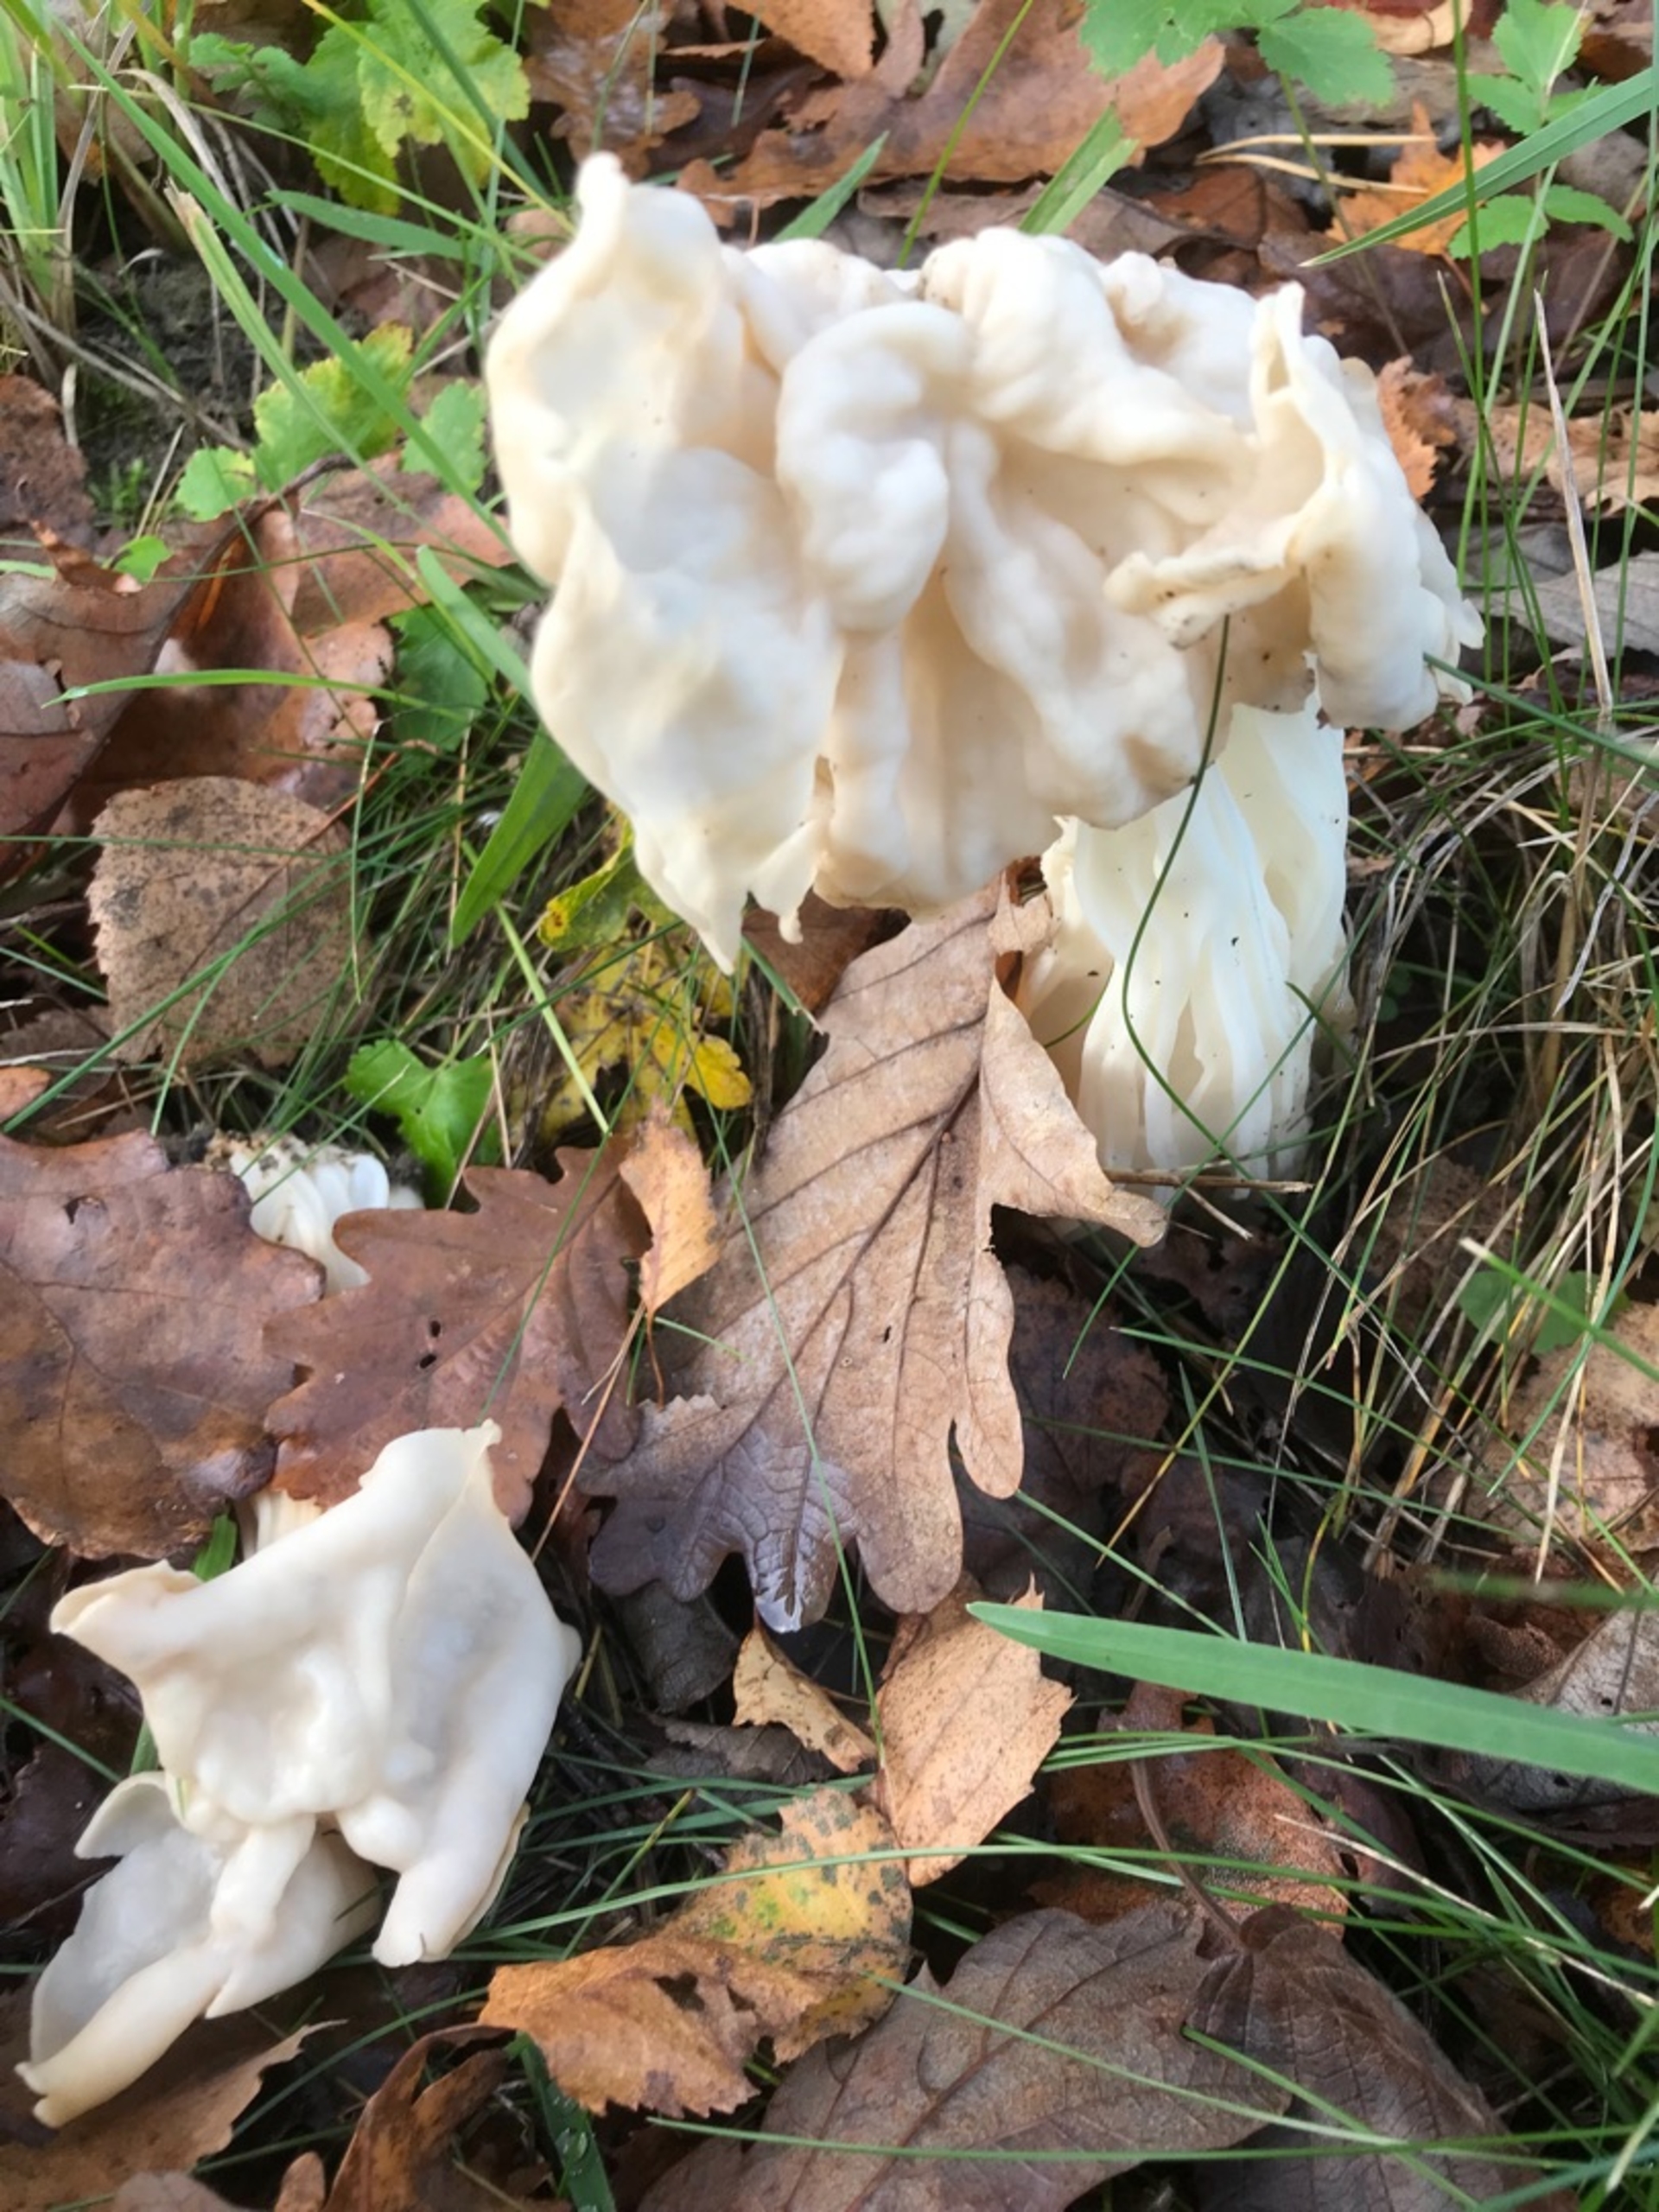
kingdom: Fungi
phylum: Ascomycota
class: Pezizomycetes
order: Pezizales
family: Helvellaceae
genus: Helvella
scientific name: Helvella crispa
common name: Kruset foldhat
